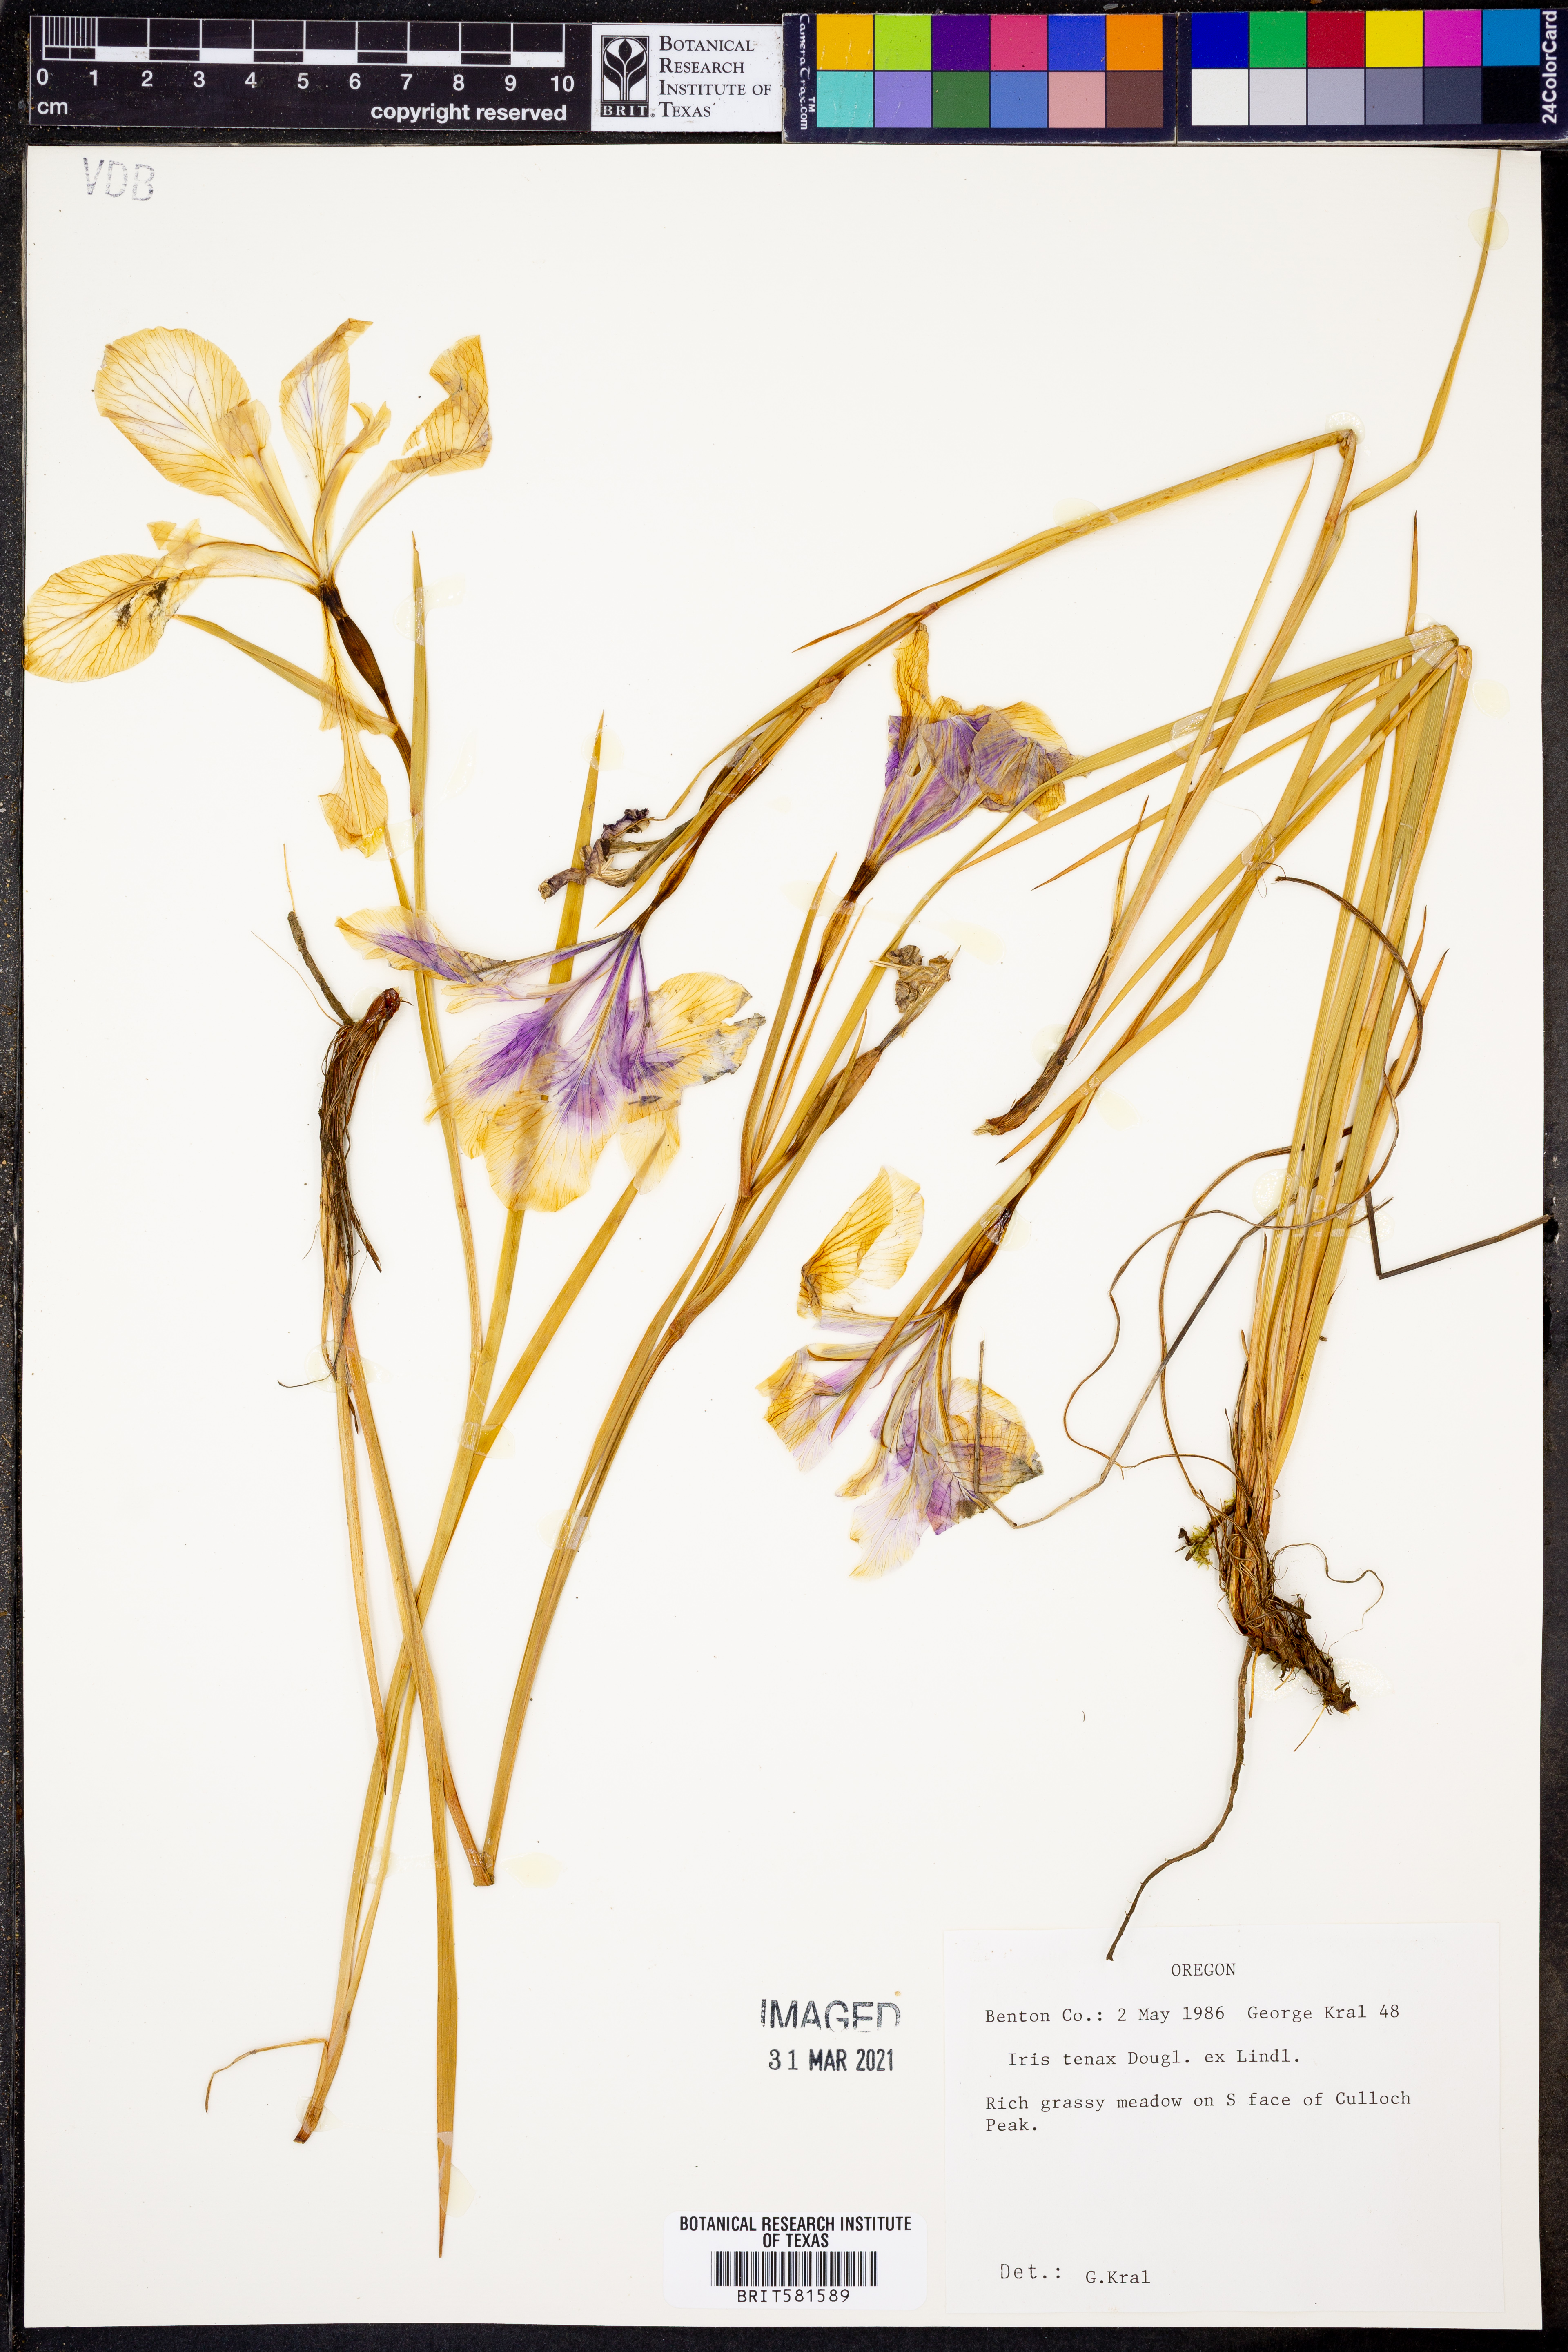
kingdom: Plantae
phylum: Tracheophyta
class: Liliopsida
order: Asparagales
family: Iridaceae
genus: Iris
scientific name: Iris tenax
